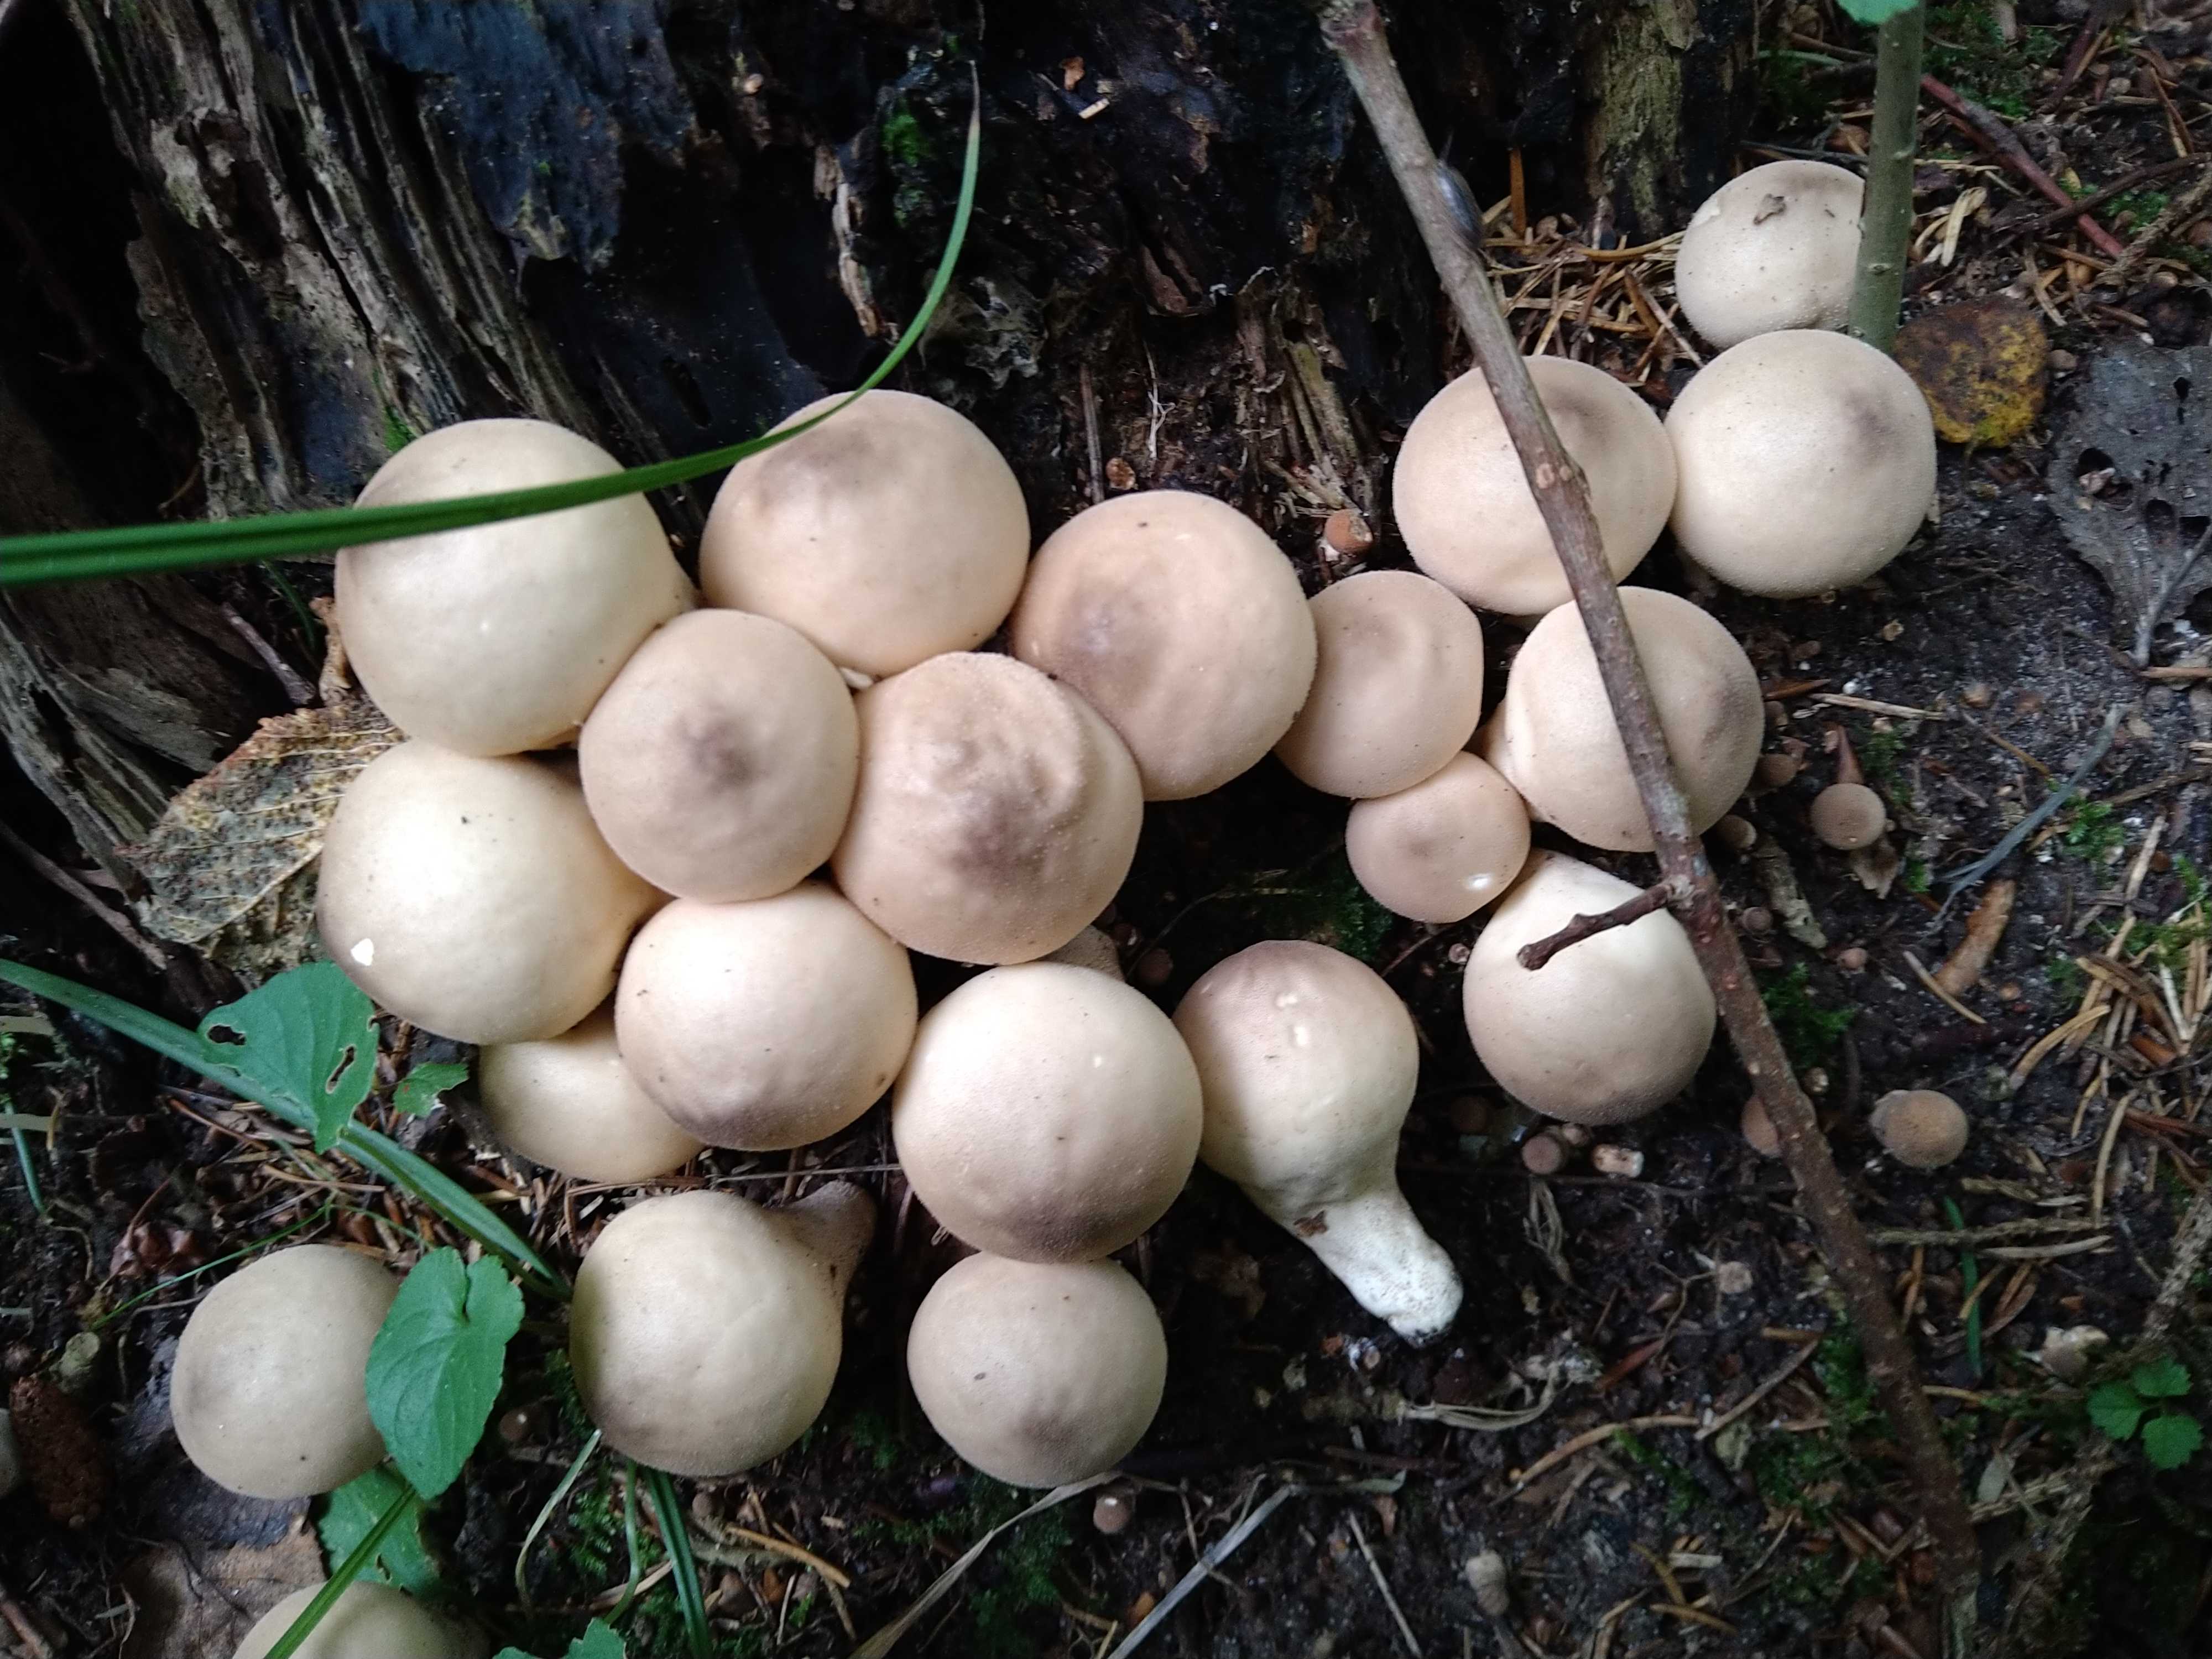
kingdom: Fungi
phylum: Basidiomycota
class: Agaricomycetes
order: Agaricales
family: Lycoperdaceae
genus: Apioperdon
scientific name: Apioperdon pyriforme
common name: pære-støvbold
